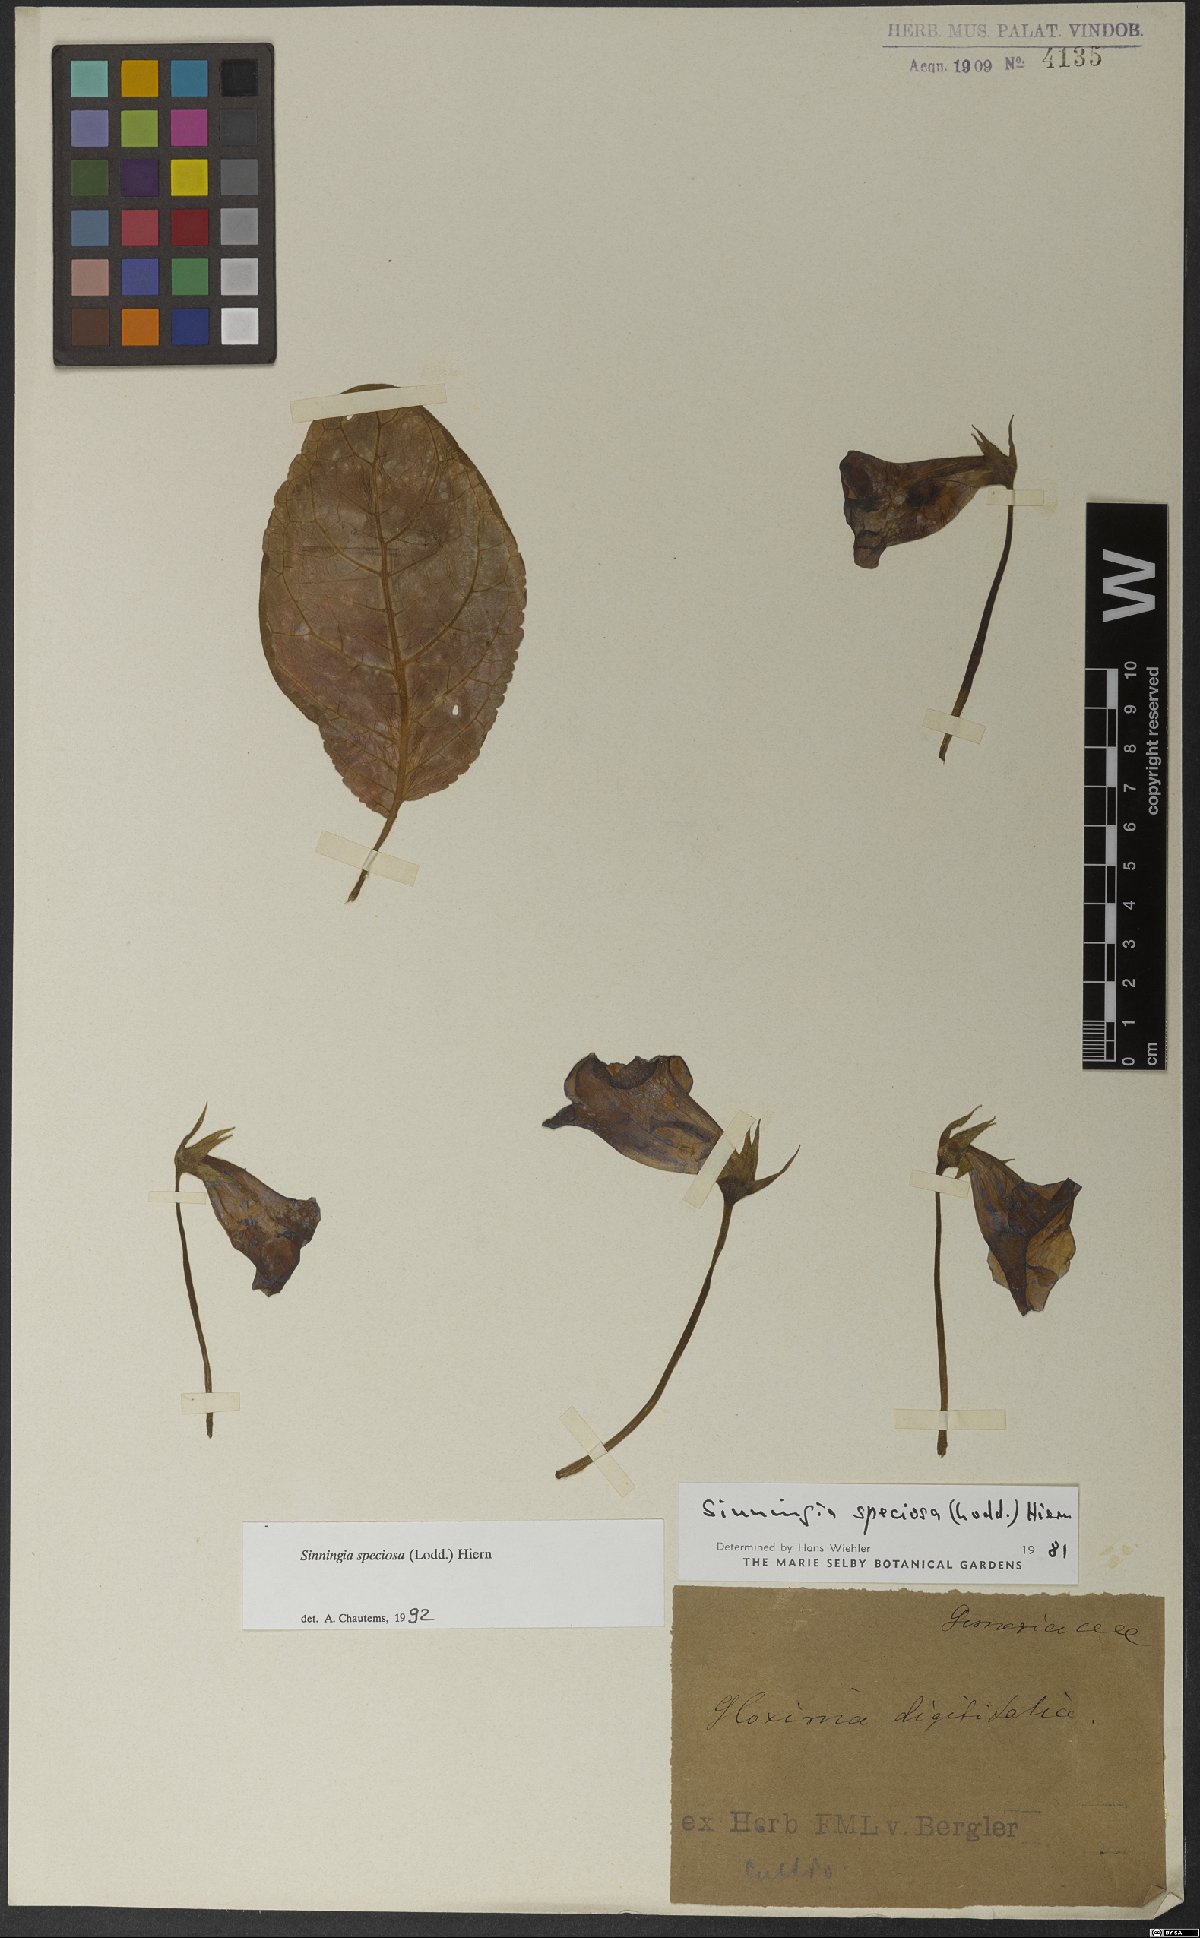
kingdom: Plantae
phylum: Tracheophyta
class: Magnoliopsida
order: Lamiales
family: Gesneriaceae
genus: Sinningia
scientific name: Sinningia speciosa
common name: Brazilian gloxinia
